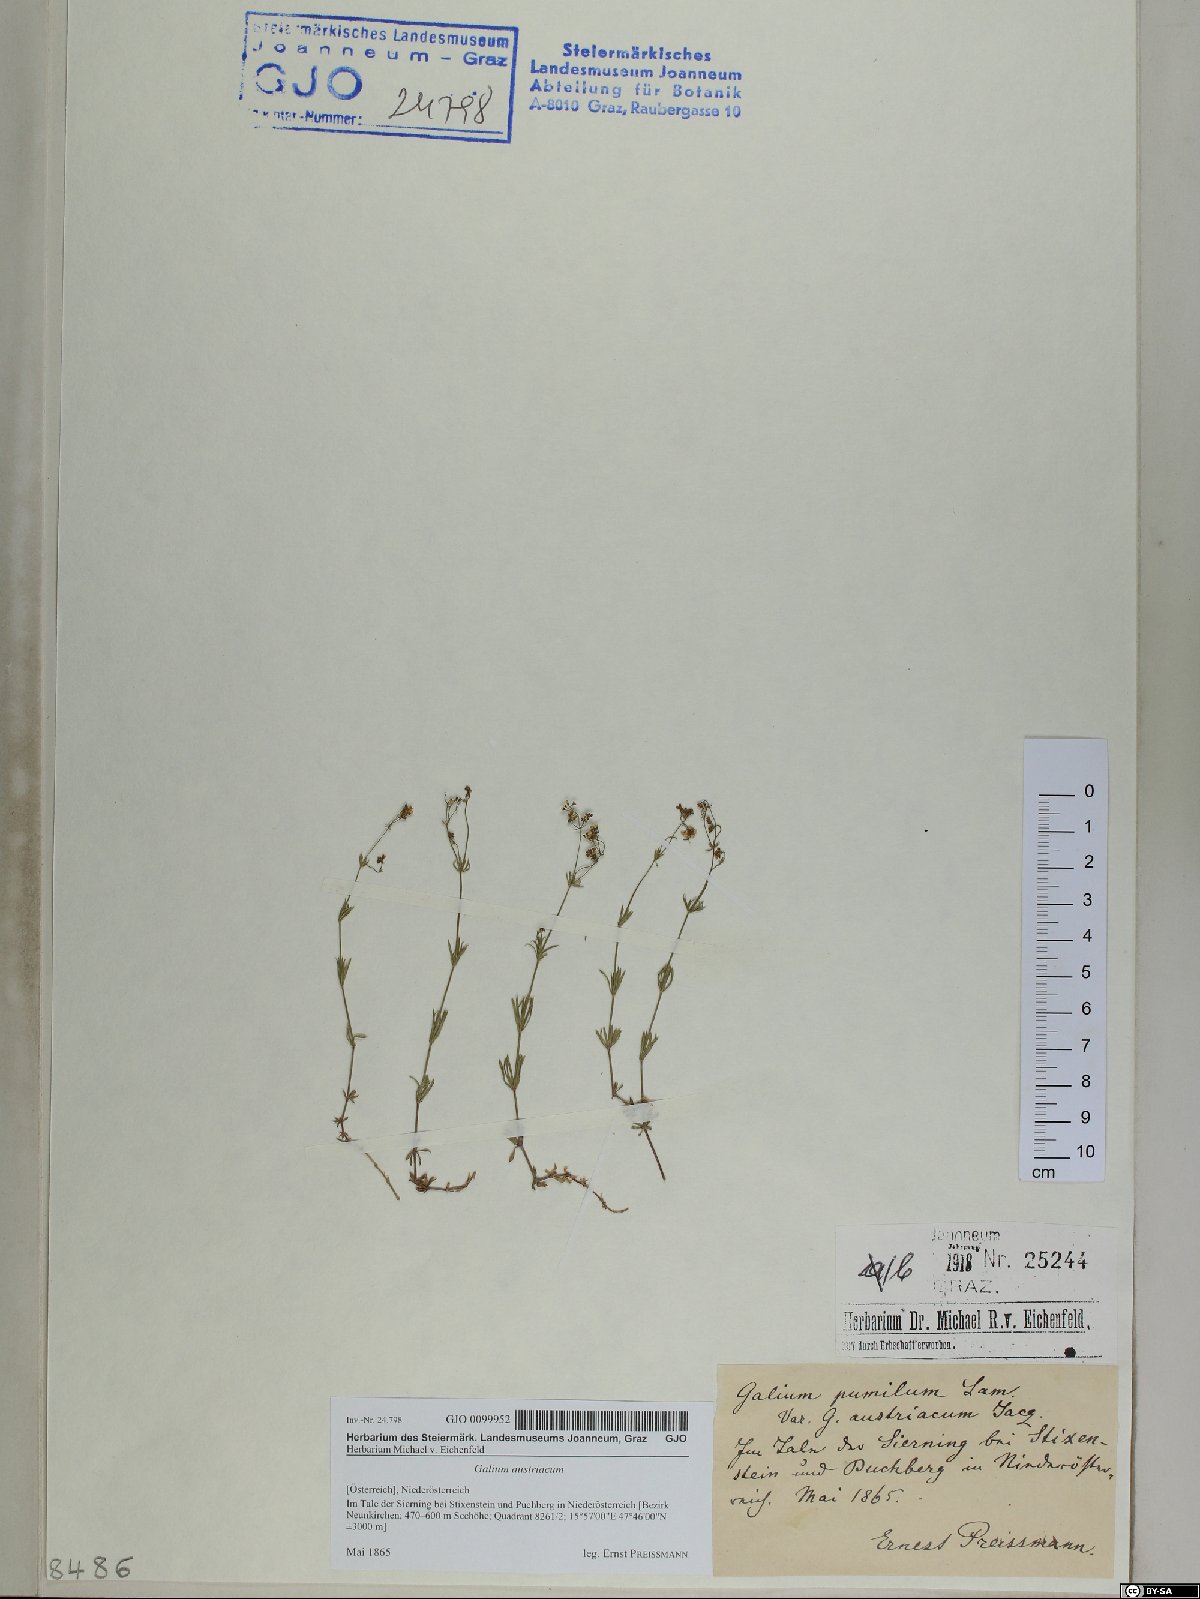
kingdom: Plantae
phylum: Tracheophyta
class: Magnoliopsida
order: Gentianales
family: Rubiaceae
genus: Galium
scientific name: Galium austriacum
